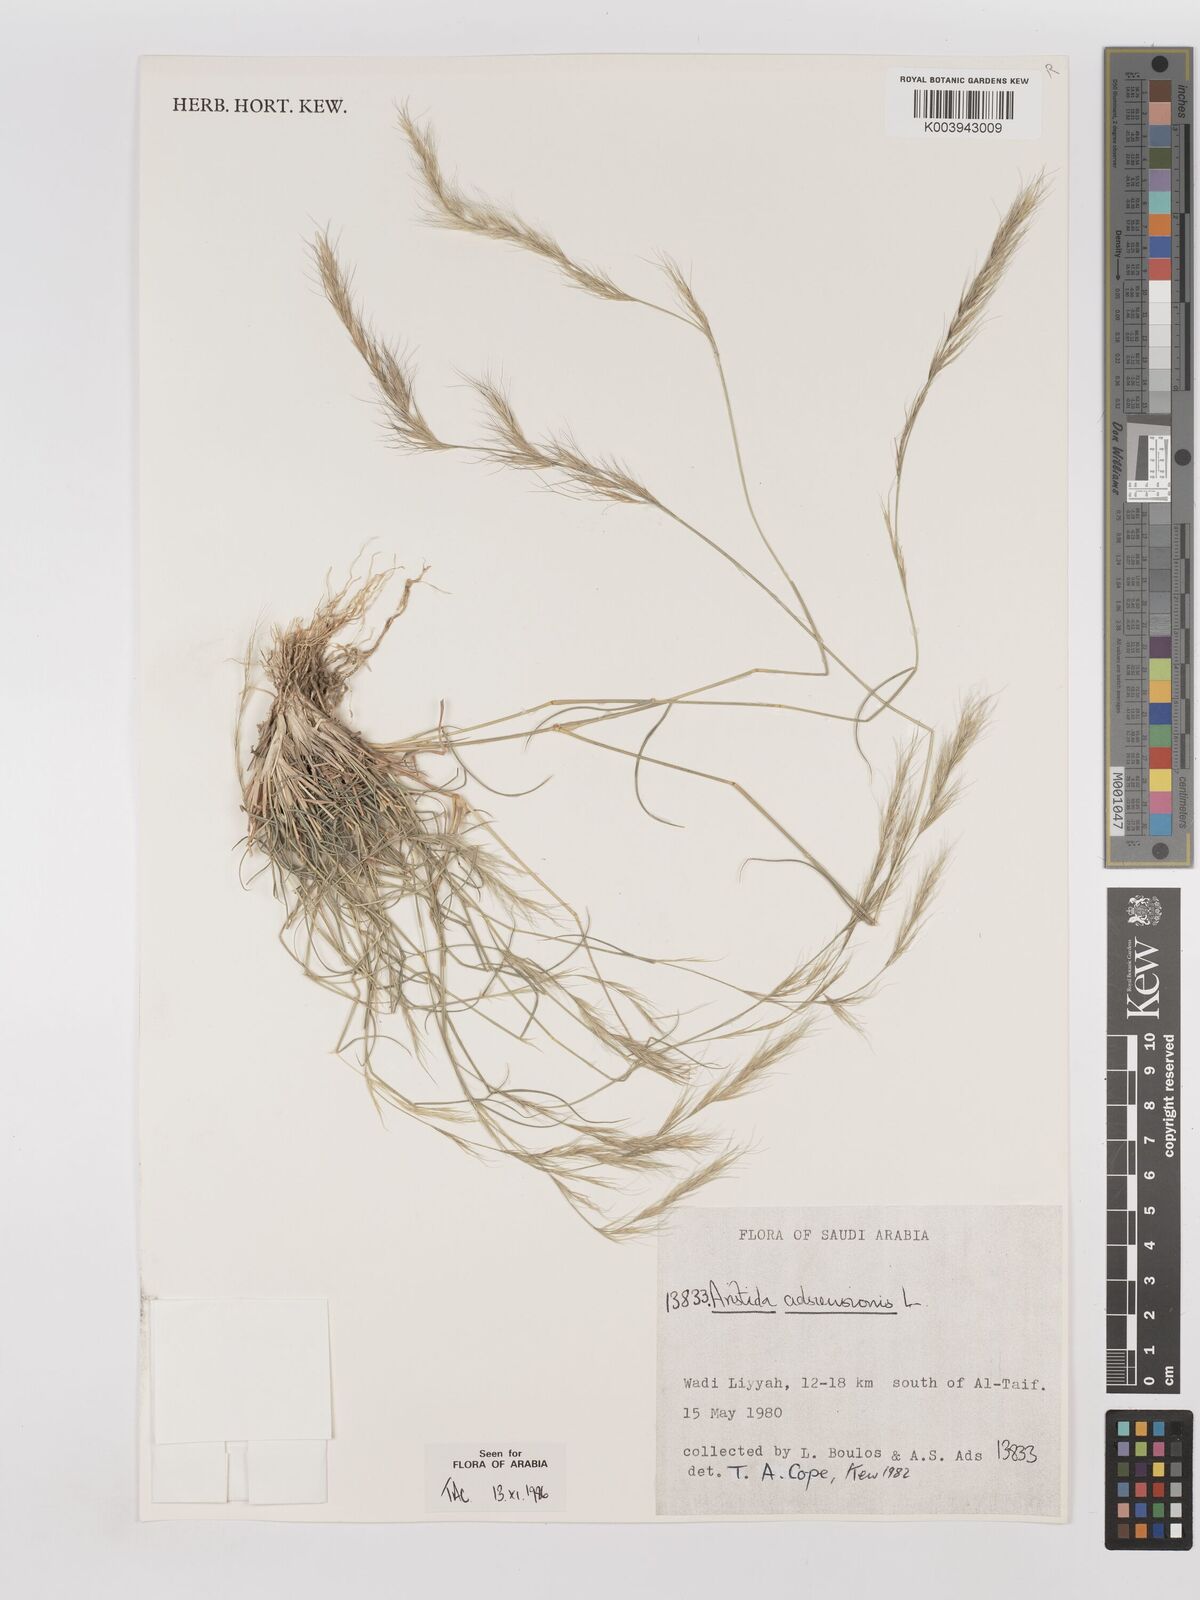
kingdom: Plantae
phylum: Tracheophyta
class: Liliopsida
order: Poales
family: Poaceae
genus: Aristida
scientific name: Aristida adscensionis
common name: Sixweeks threeawn
